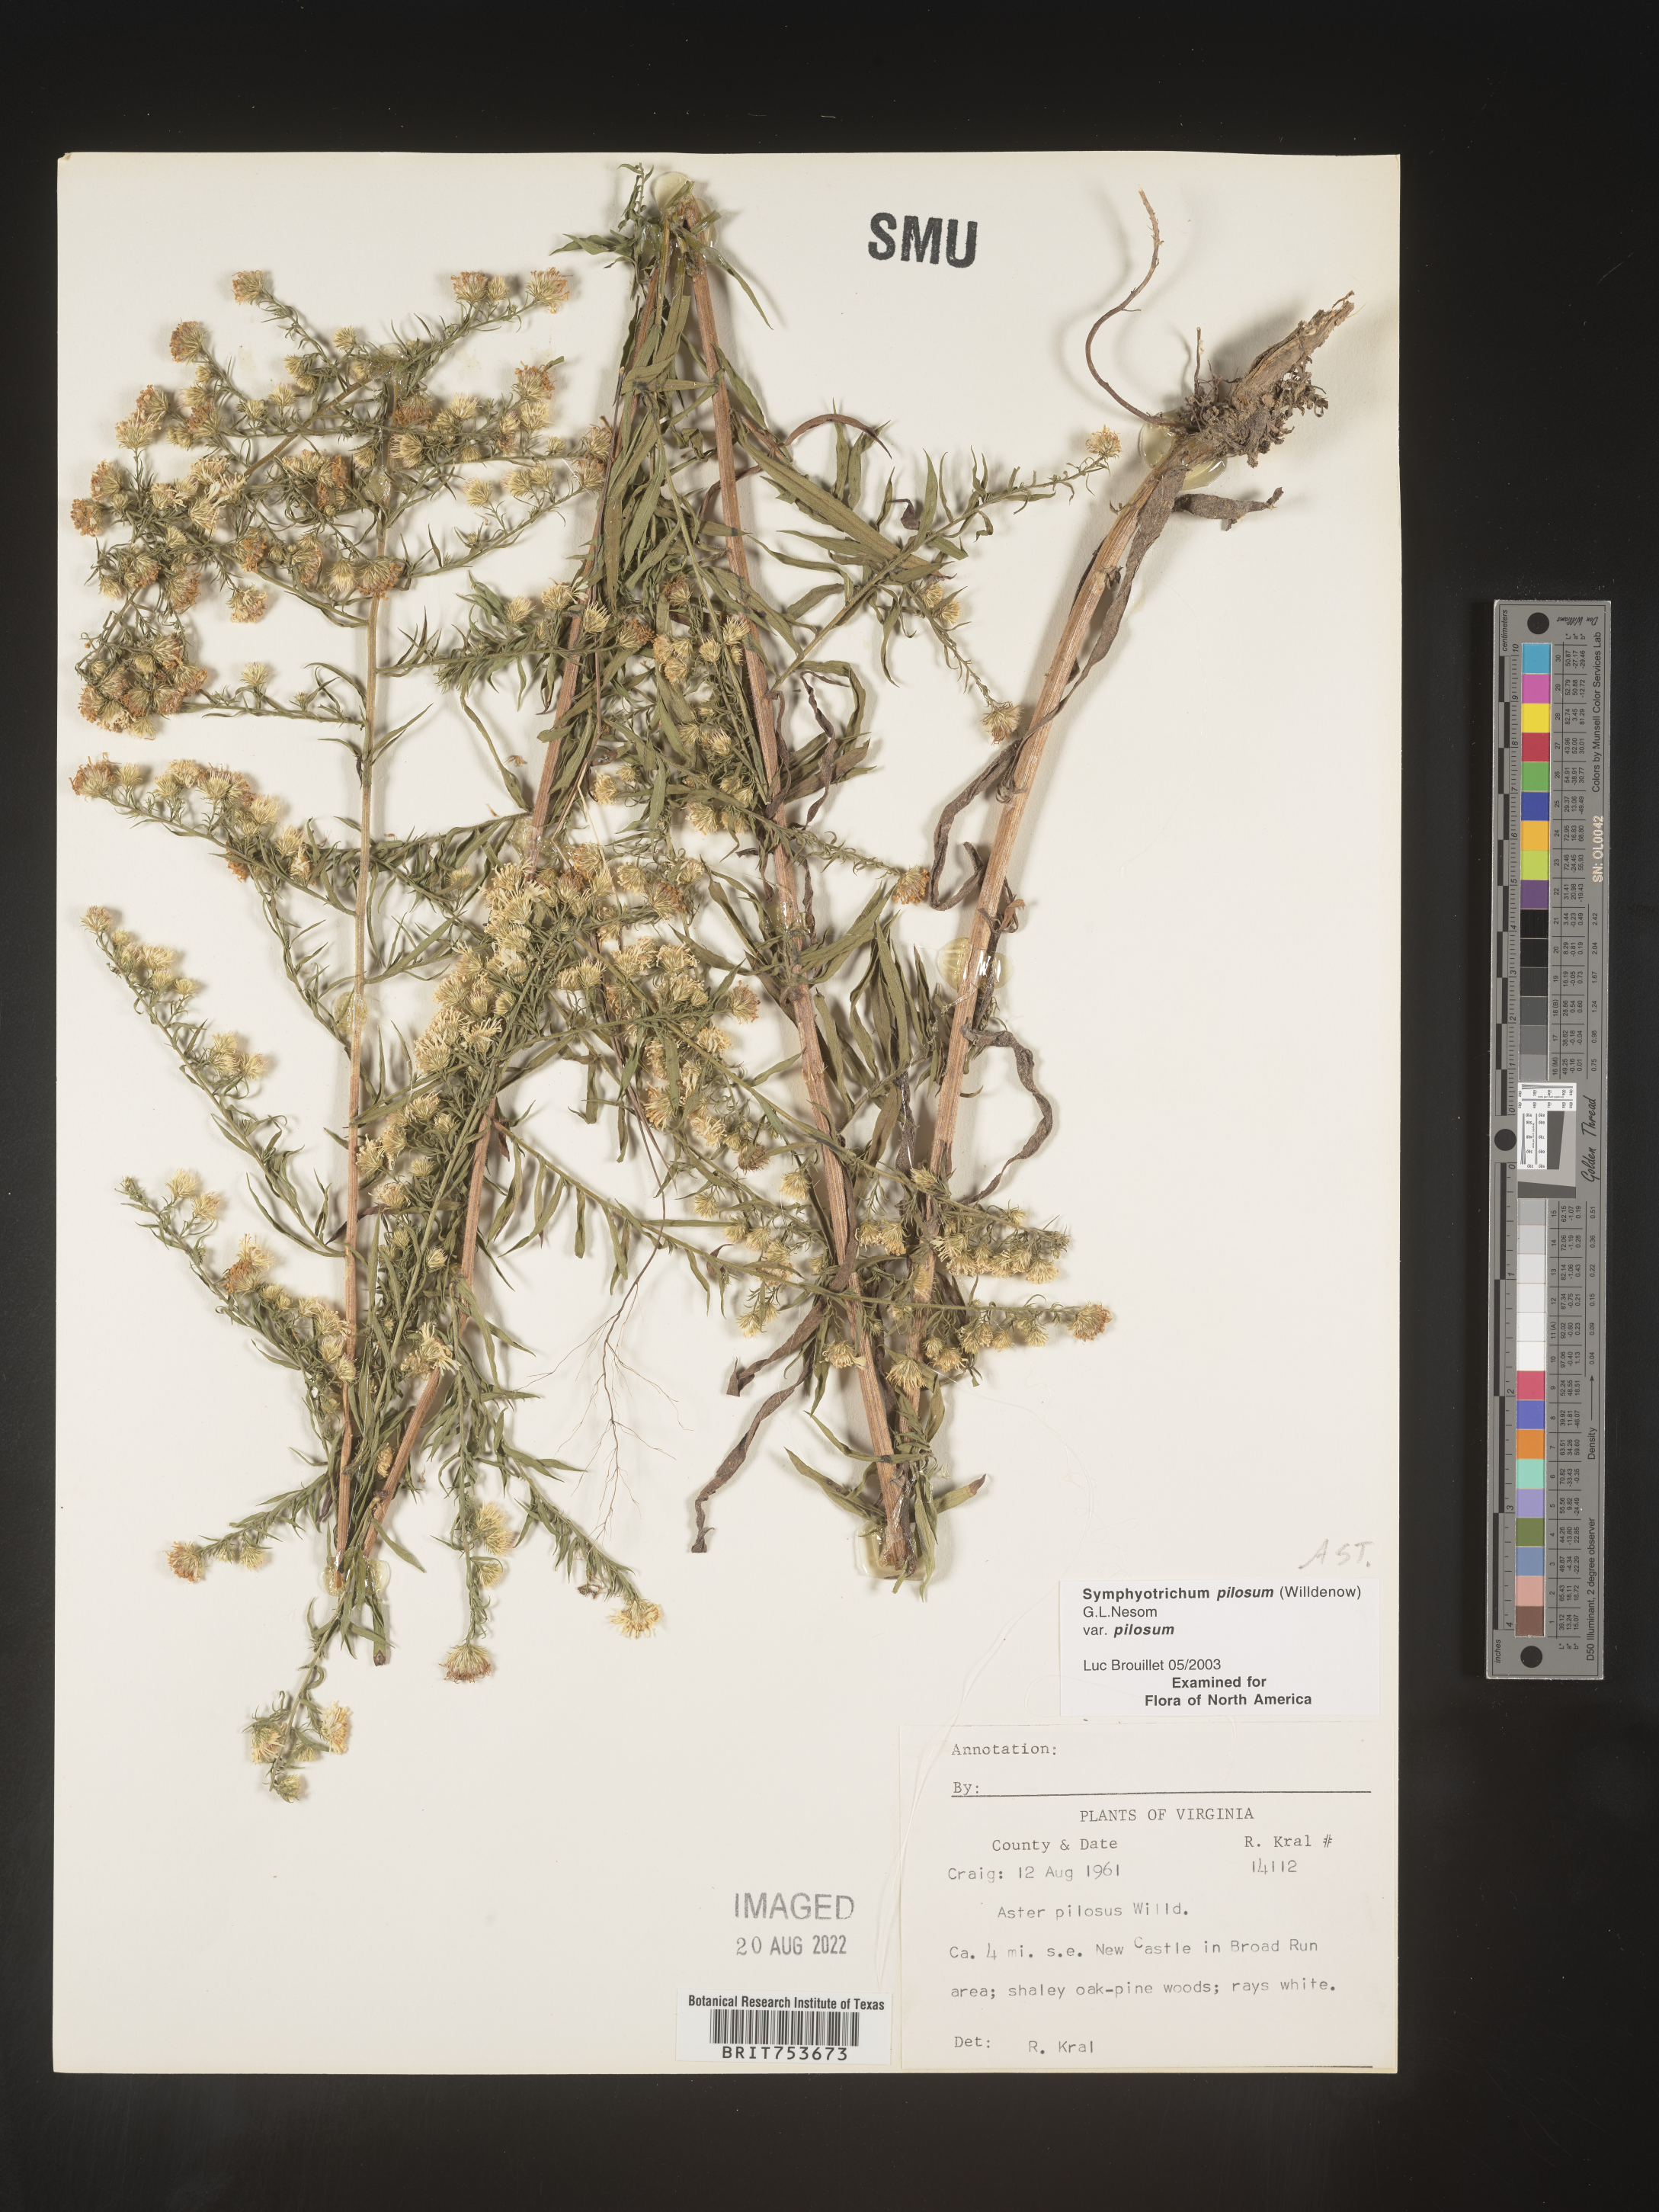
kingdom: Plantae
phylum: Tracheophyta
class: Magnoliopsida
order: Asterales
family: Asteraceae
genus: Symphyotrichum
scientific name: Symphyotrichum pilosum
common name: Awl aster
